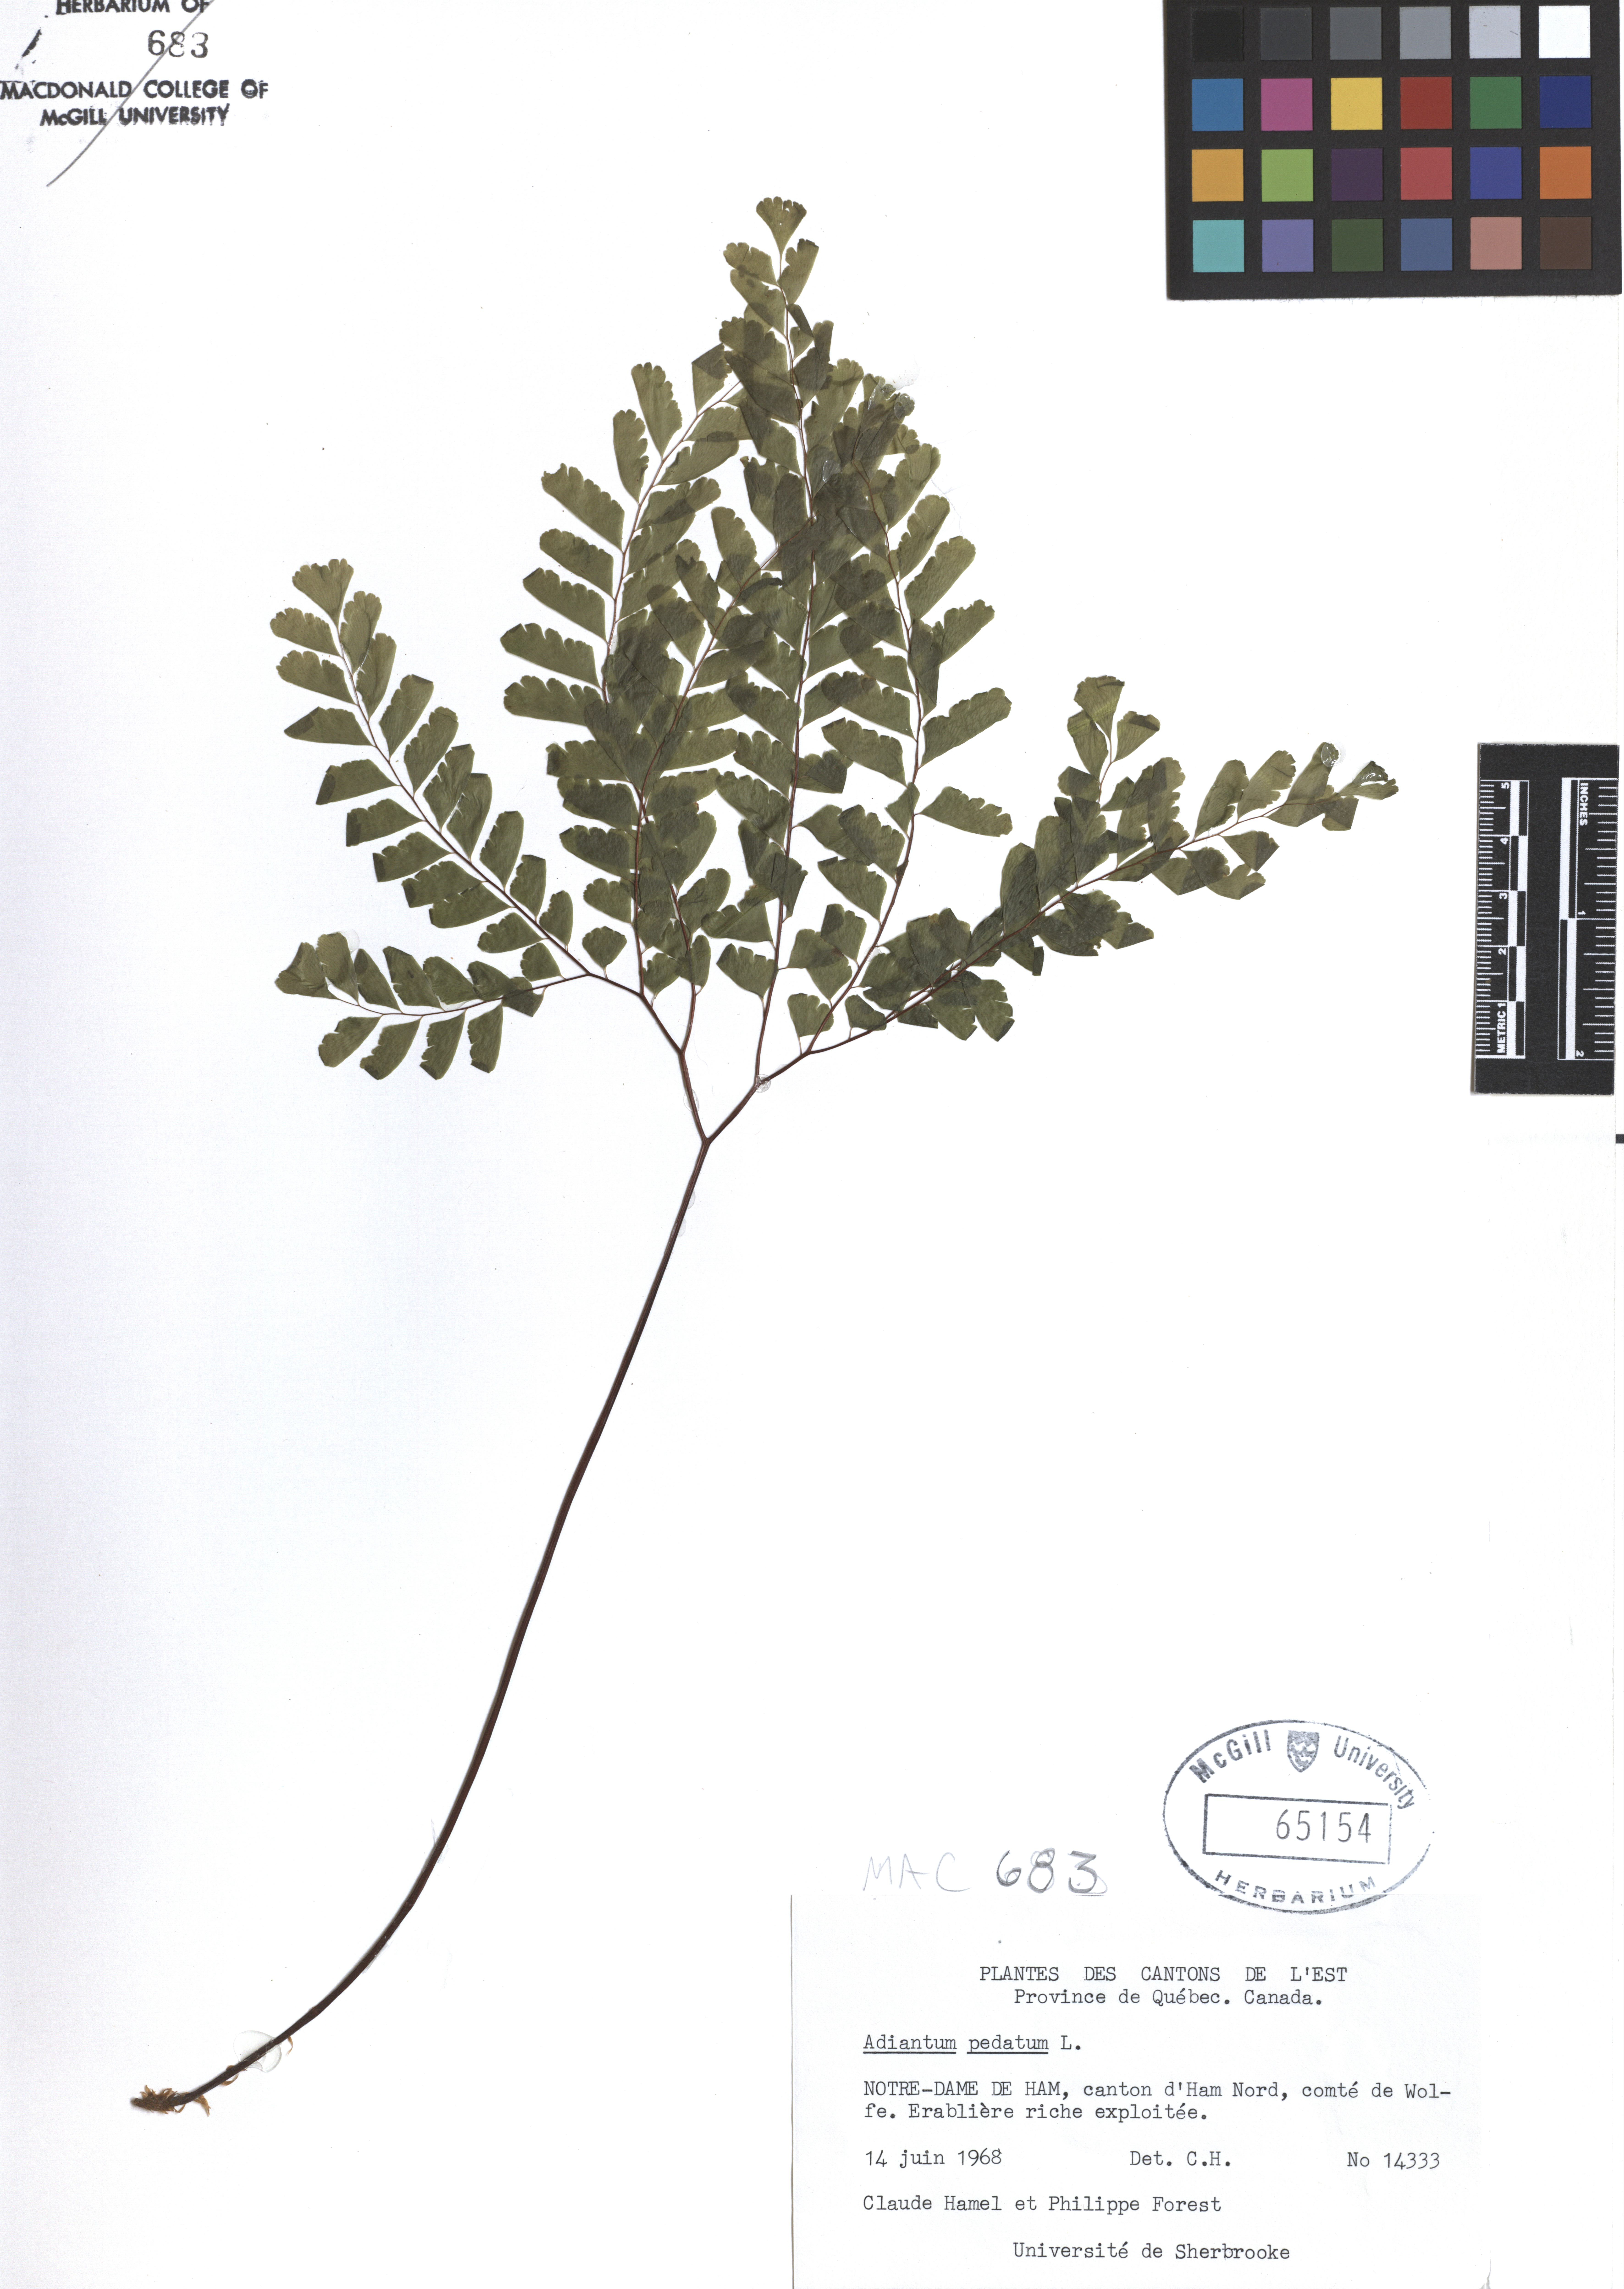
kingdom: Plantae
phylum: Tracheophyta
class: Polypodiopsida
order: Polypodiales
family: Pteridaceae
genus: Adiantum
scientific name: Adiantum pedatum
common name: Five-finger fern
